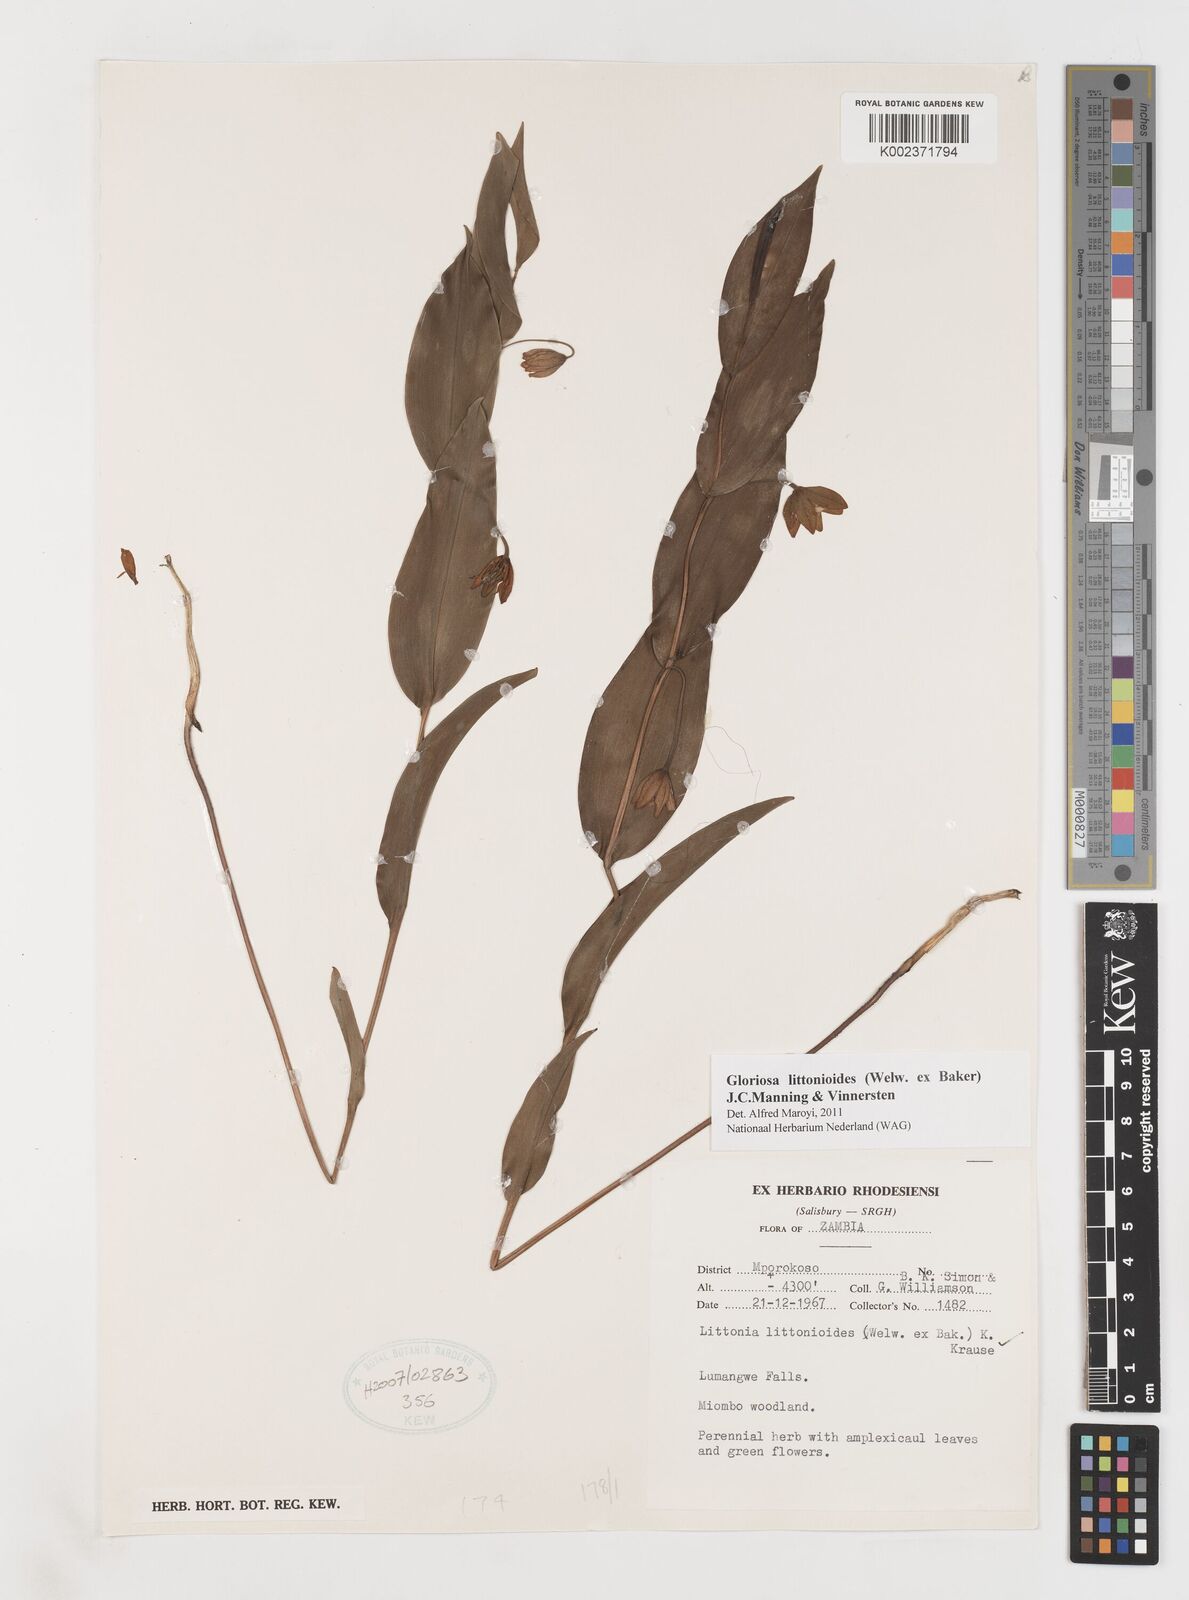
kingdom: Plantae
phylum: Tracheophyta
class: Liliopsida
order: Liliales
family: Colchicaceae
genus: Gloriosa
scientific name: Gloriosa littonioides
